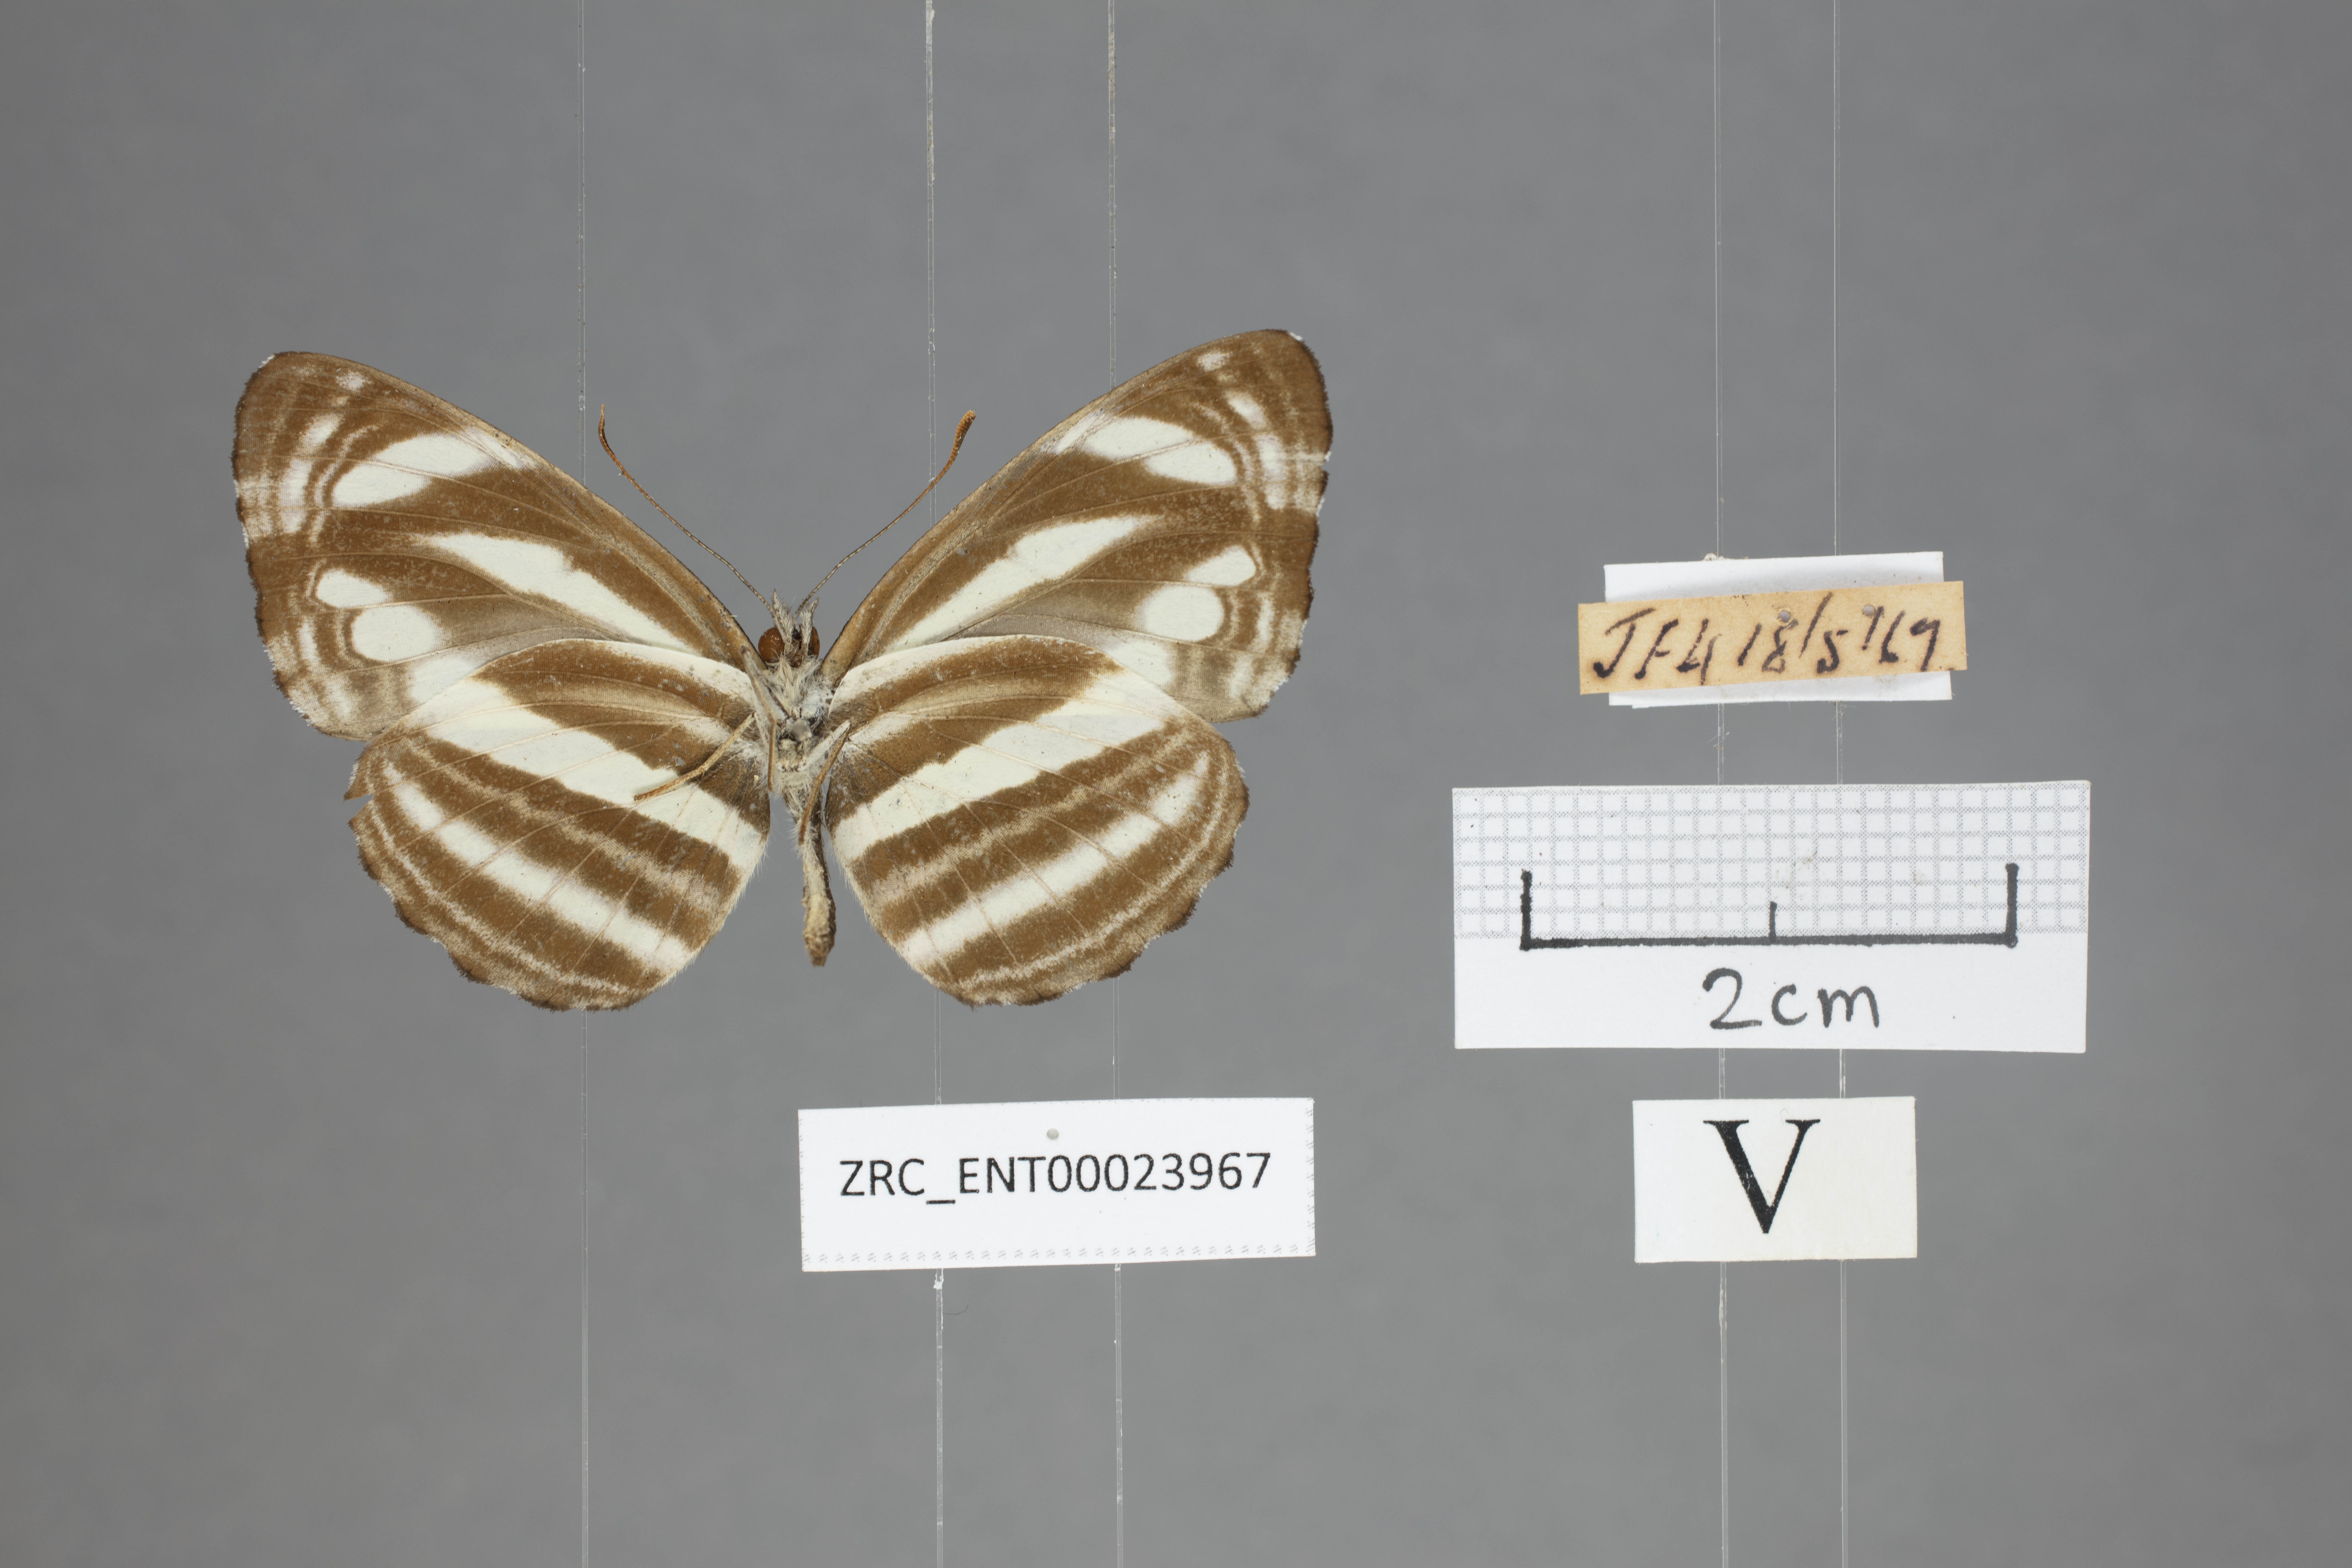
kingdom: Animalia
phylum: Arthropoda
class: Insecta
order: Lepidoptera
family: Nymphalidae
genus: Neptis
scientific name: Neptis clinioides
